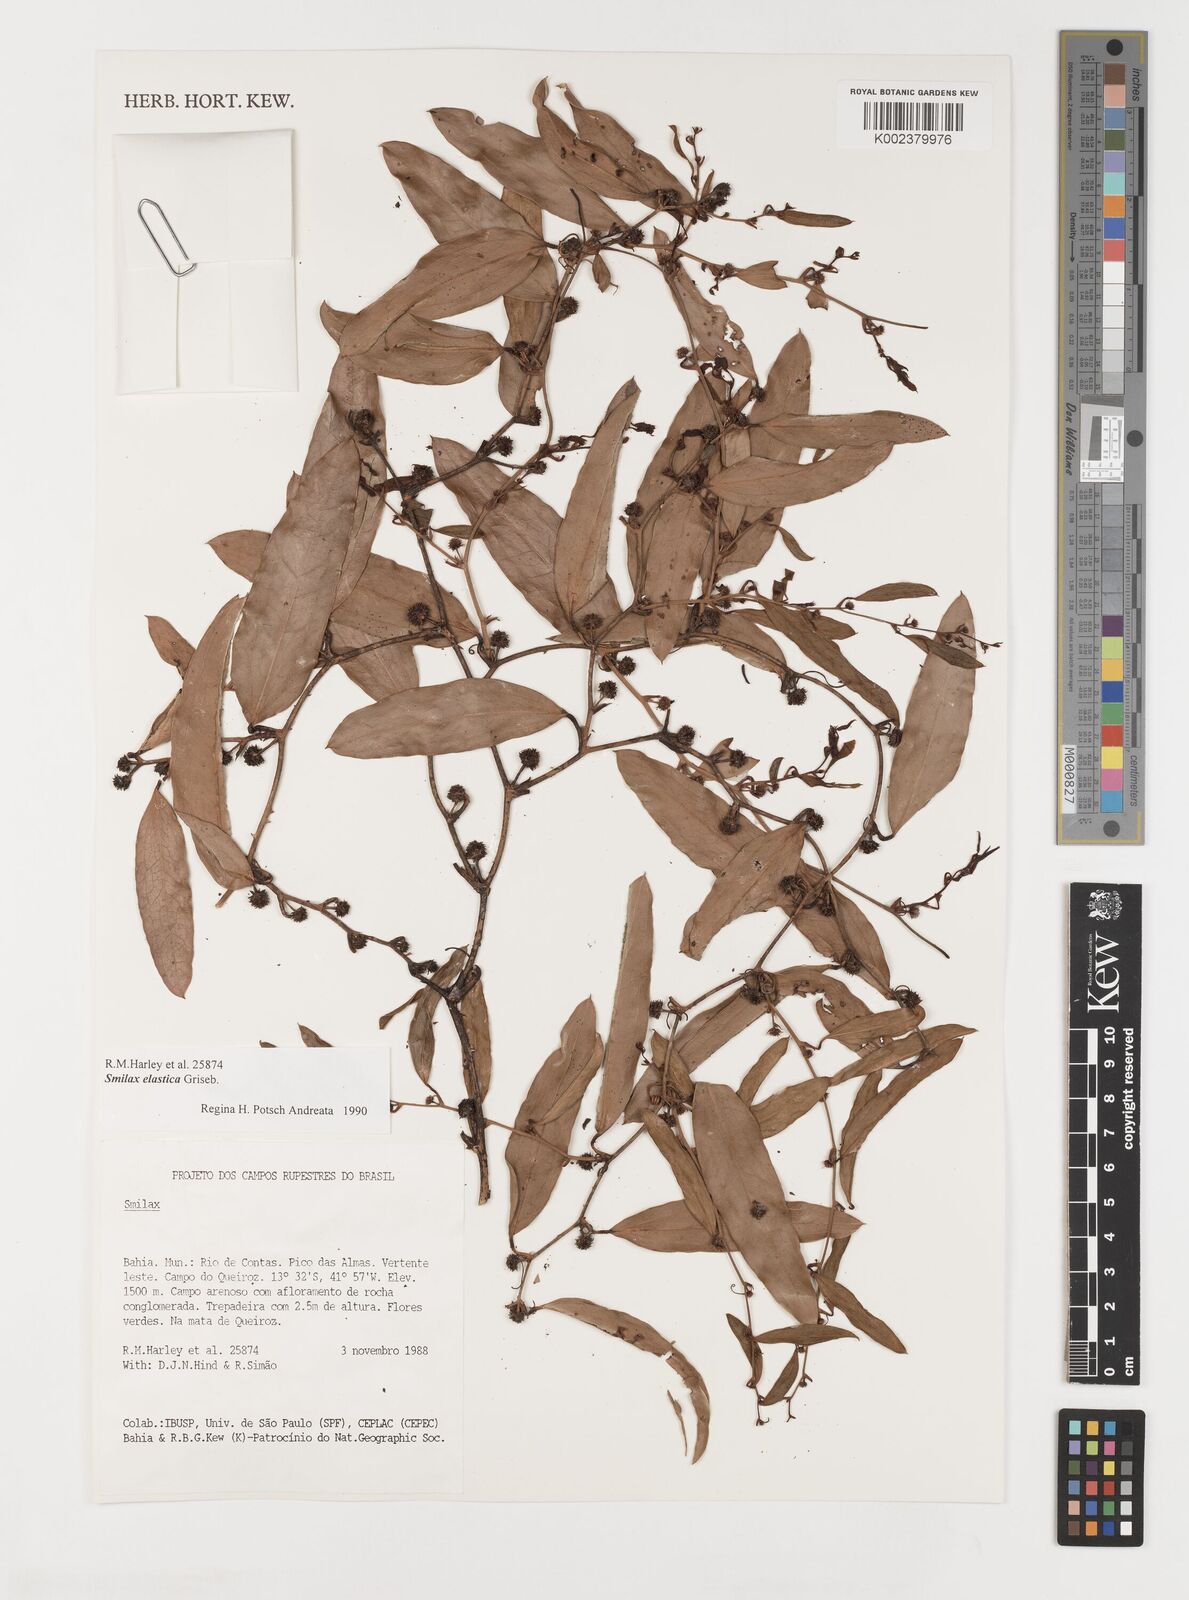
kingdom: Plantae
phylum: Tracheophyta
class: Liliopsida
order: Liliales
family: Smilacaceae
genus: Smilax
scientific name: Smilax elastica
